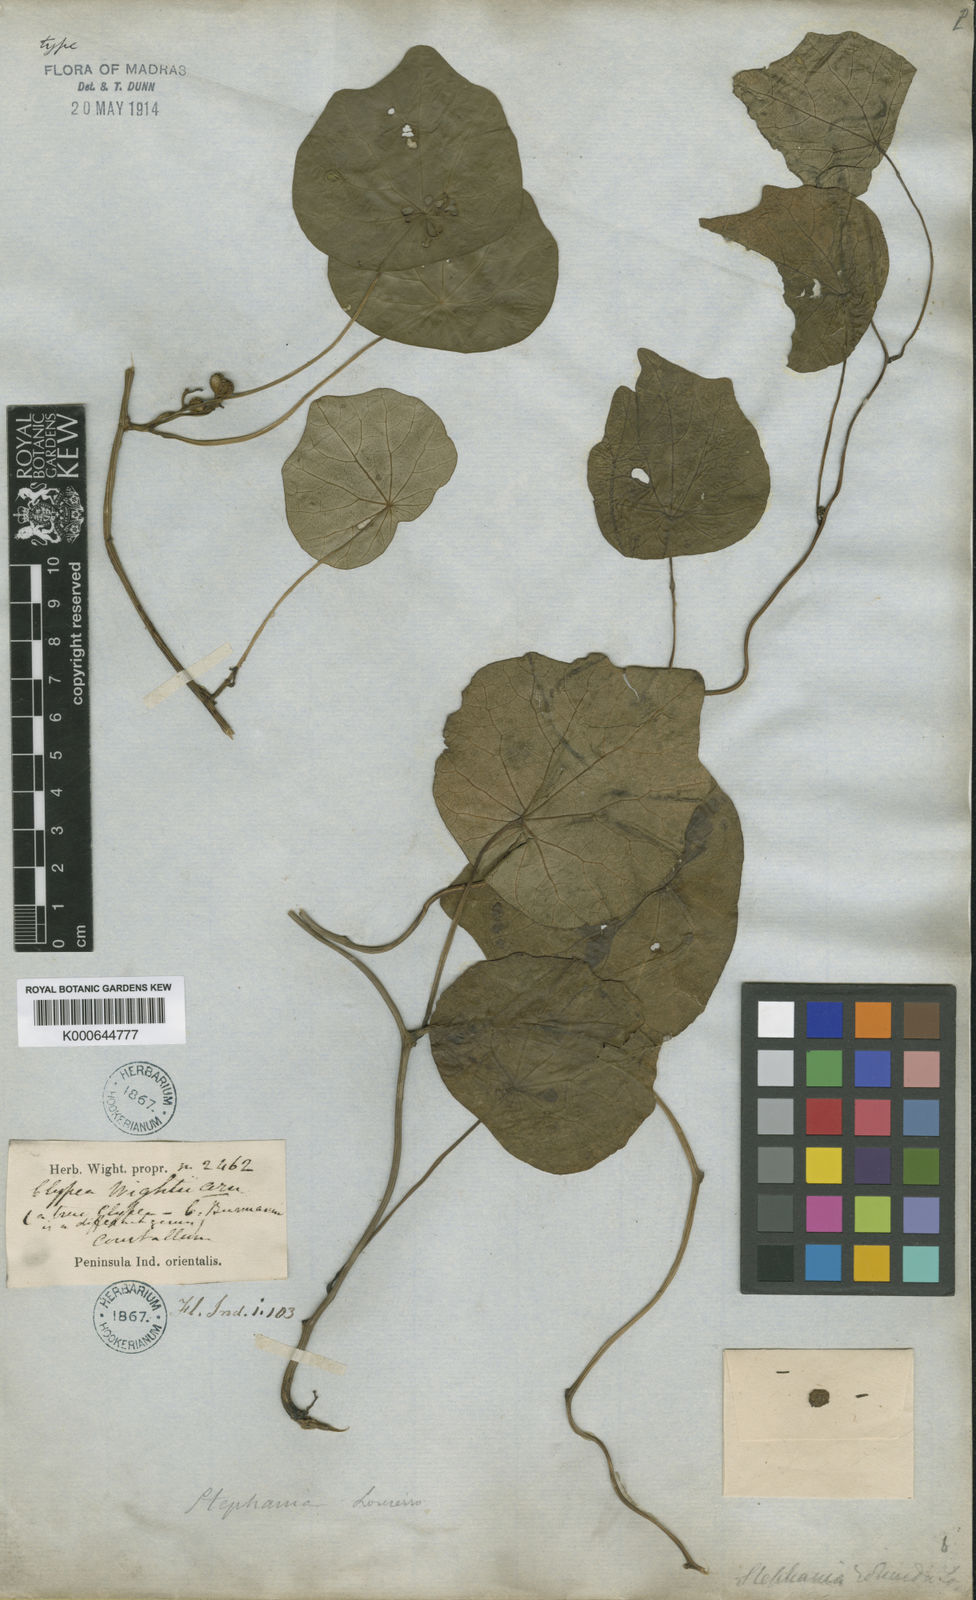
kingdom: Plantae
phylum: Tracheophyta
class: Magnoliopsida
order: Ranunculales
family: Menispermaceae
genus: Stephania
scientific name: Stephania wightii
